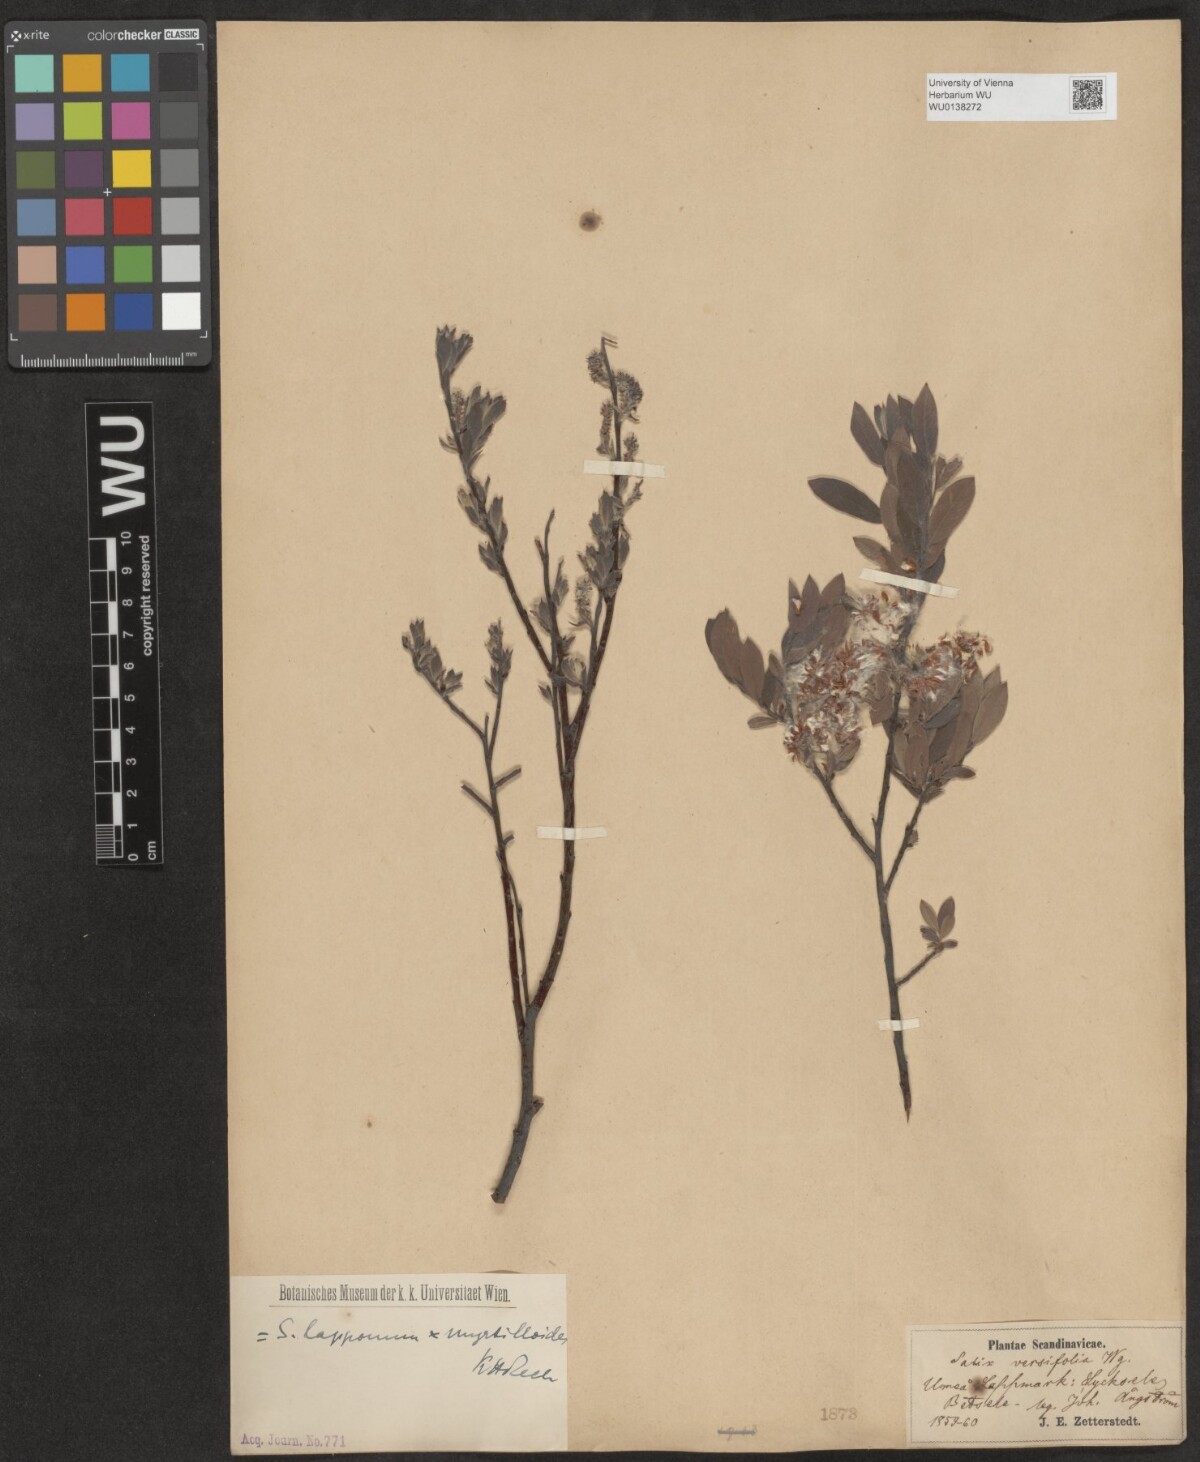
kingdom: Plantae
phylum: Tracheophyta
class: Magnoliopsida
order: Malpighiales
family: Salicaceae
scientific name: Salicaceae
